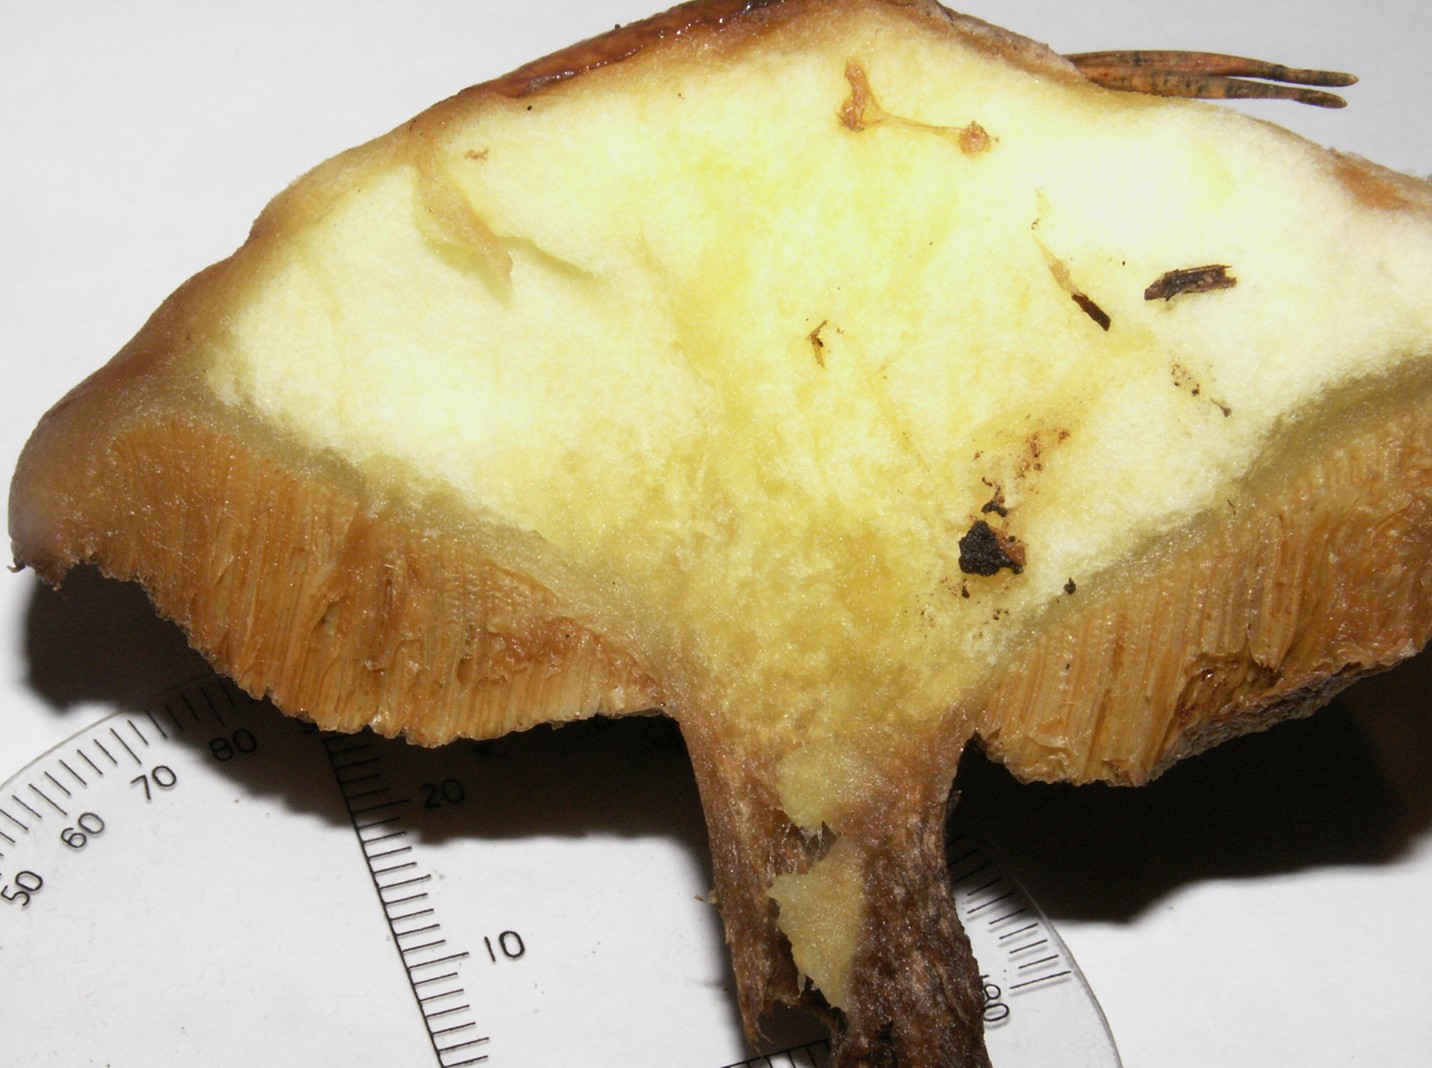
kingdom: Fungi
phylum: Basidiomycota
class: Agaricomycetes
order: Boletales
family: Suillaceae
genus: Suillus
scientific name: Suillus granulatus
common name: kornet slimrørhat
